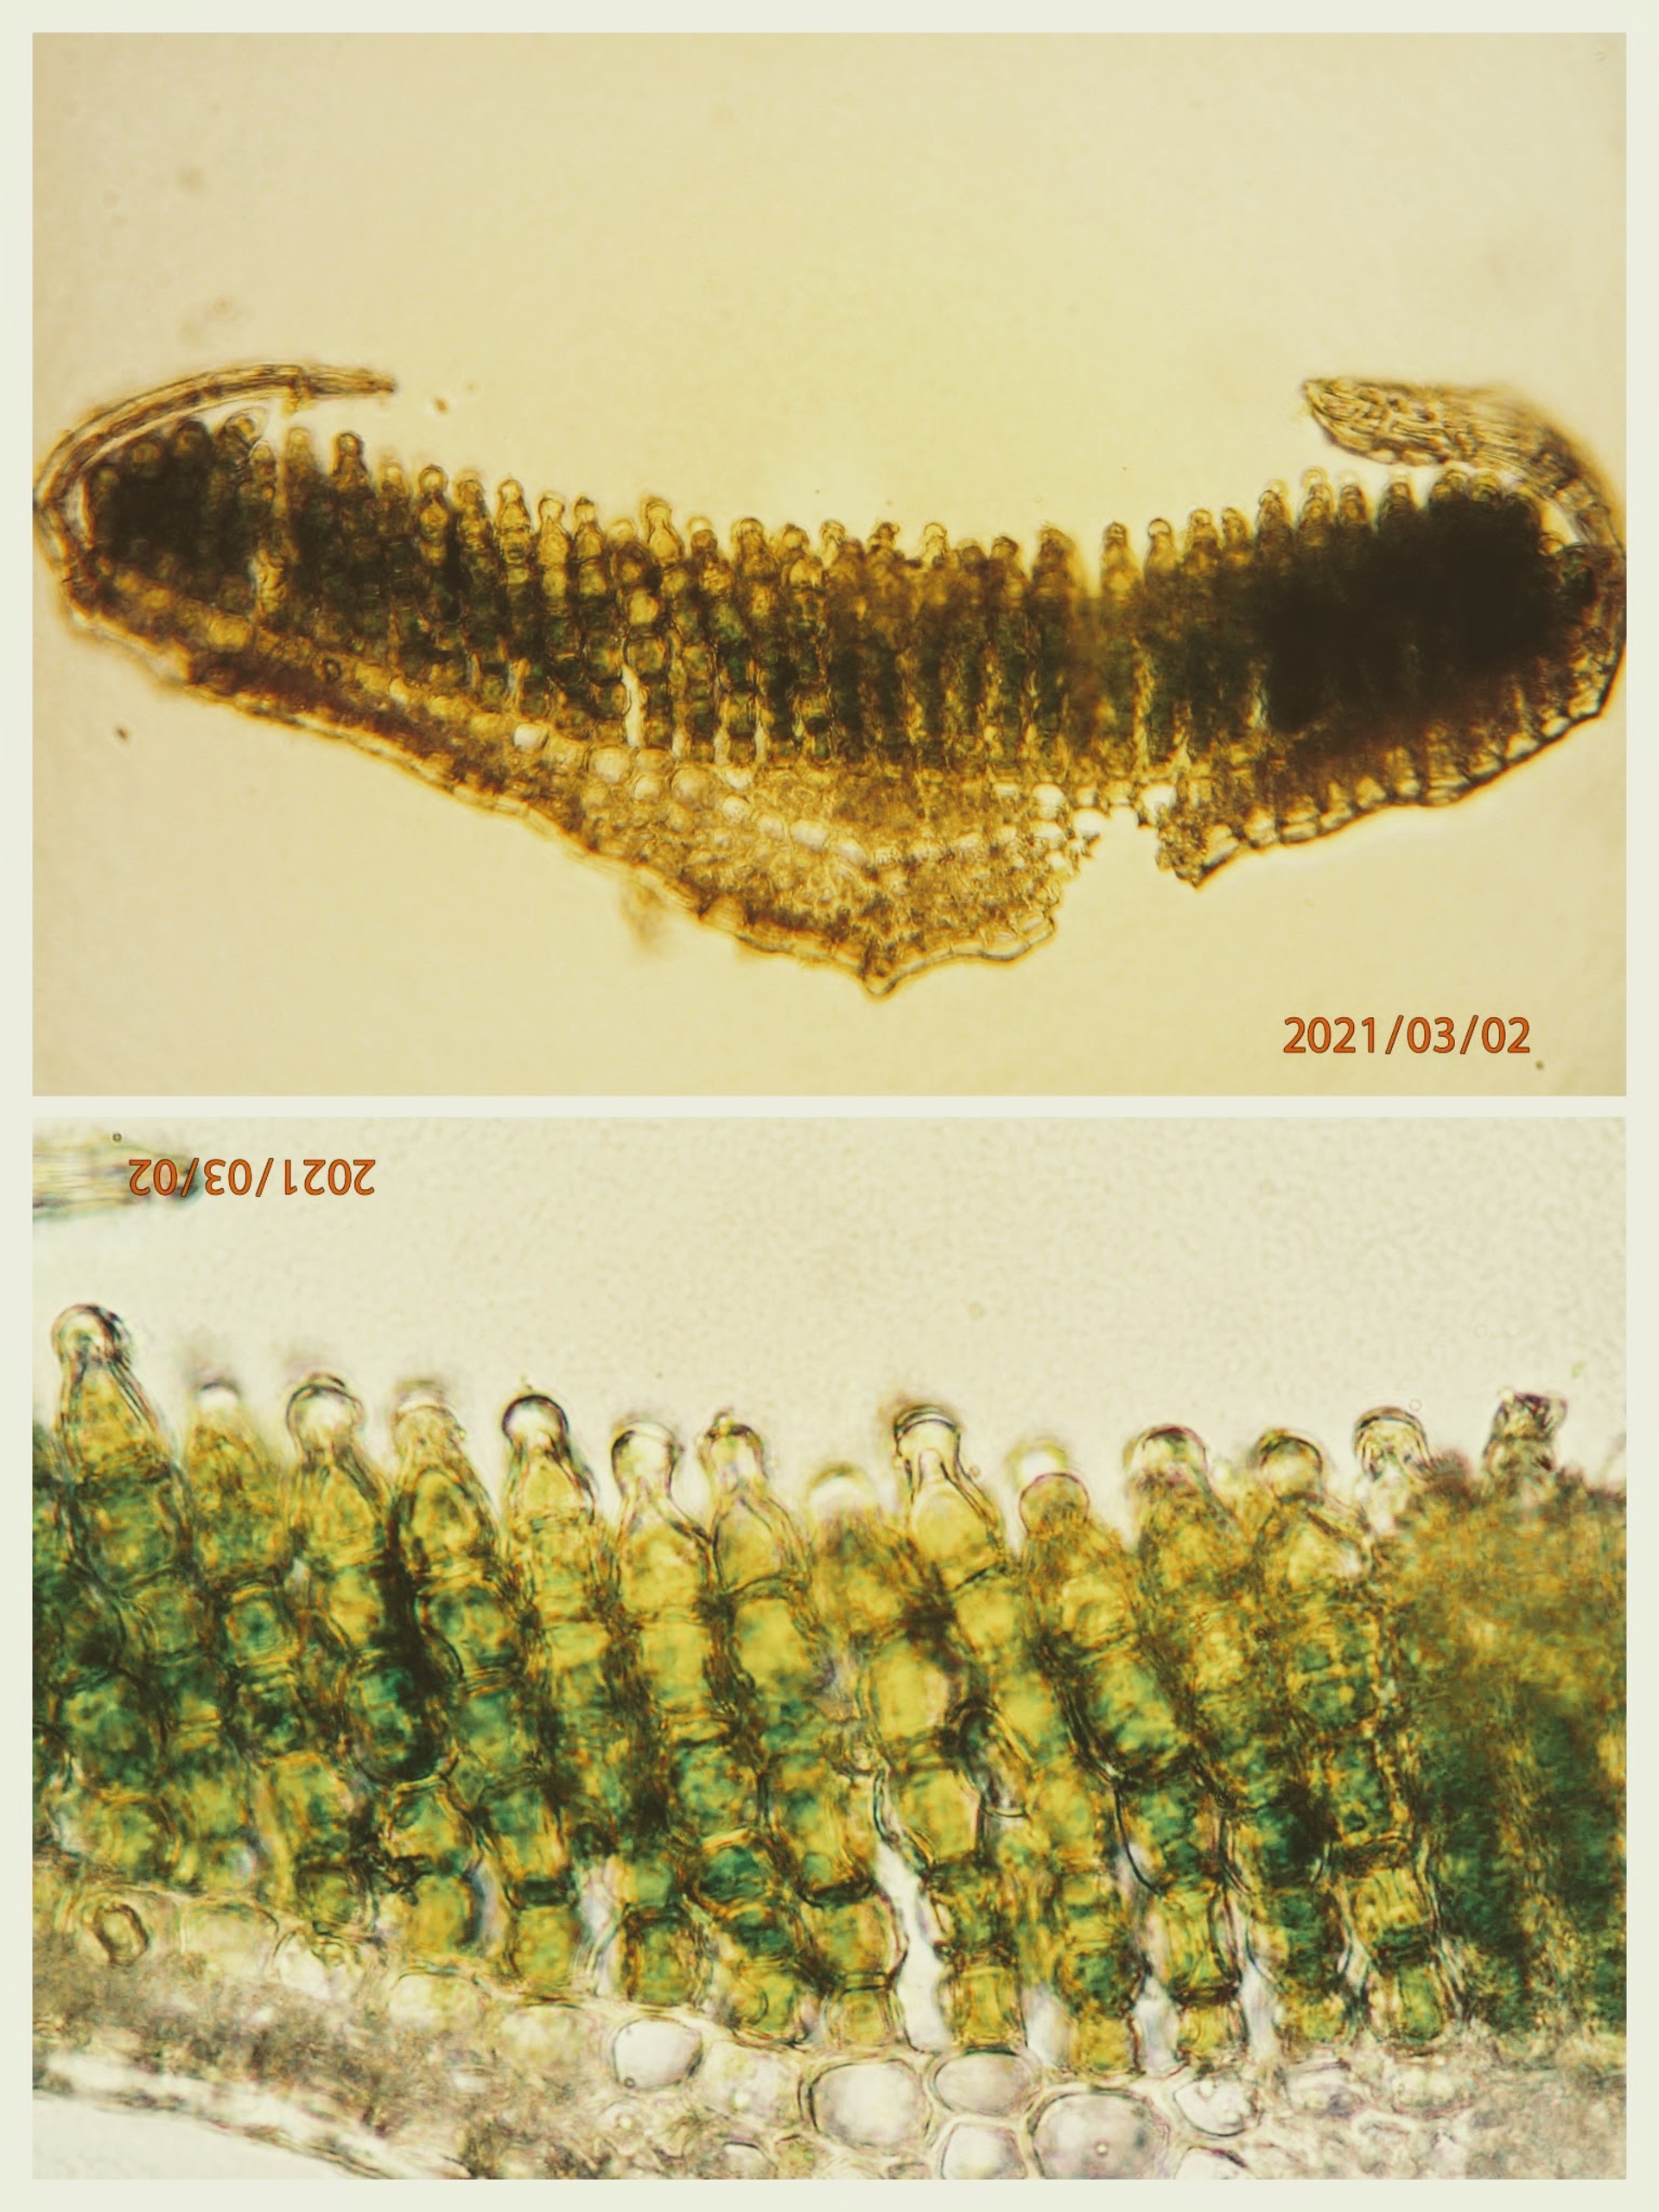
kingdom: Plantae
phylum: Bryophyta
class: Polytrichopsida
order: Polytrichales
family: Polytrichaceae
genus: Polytrichum
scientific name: Polytrichum juniperinum
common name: Ene-jomfruhår
